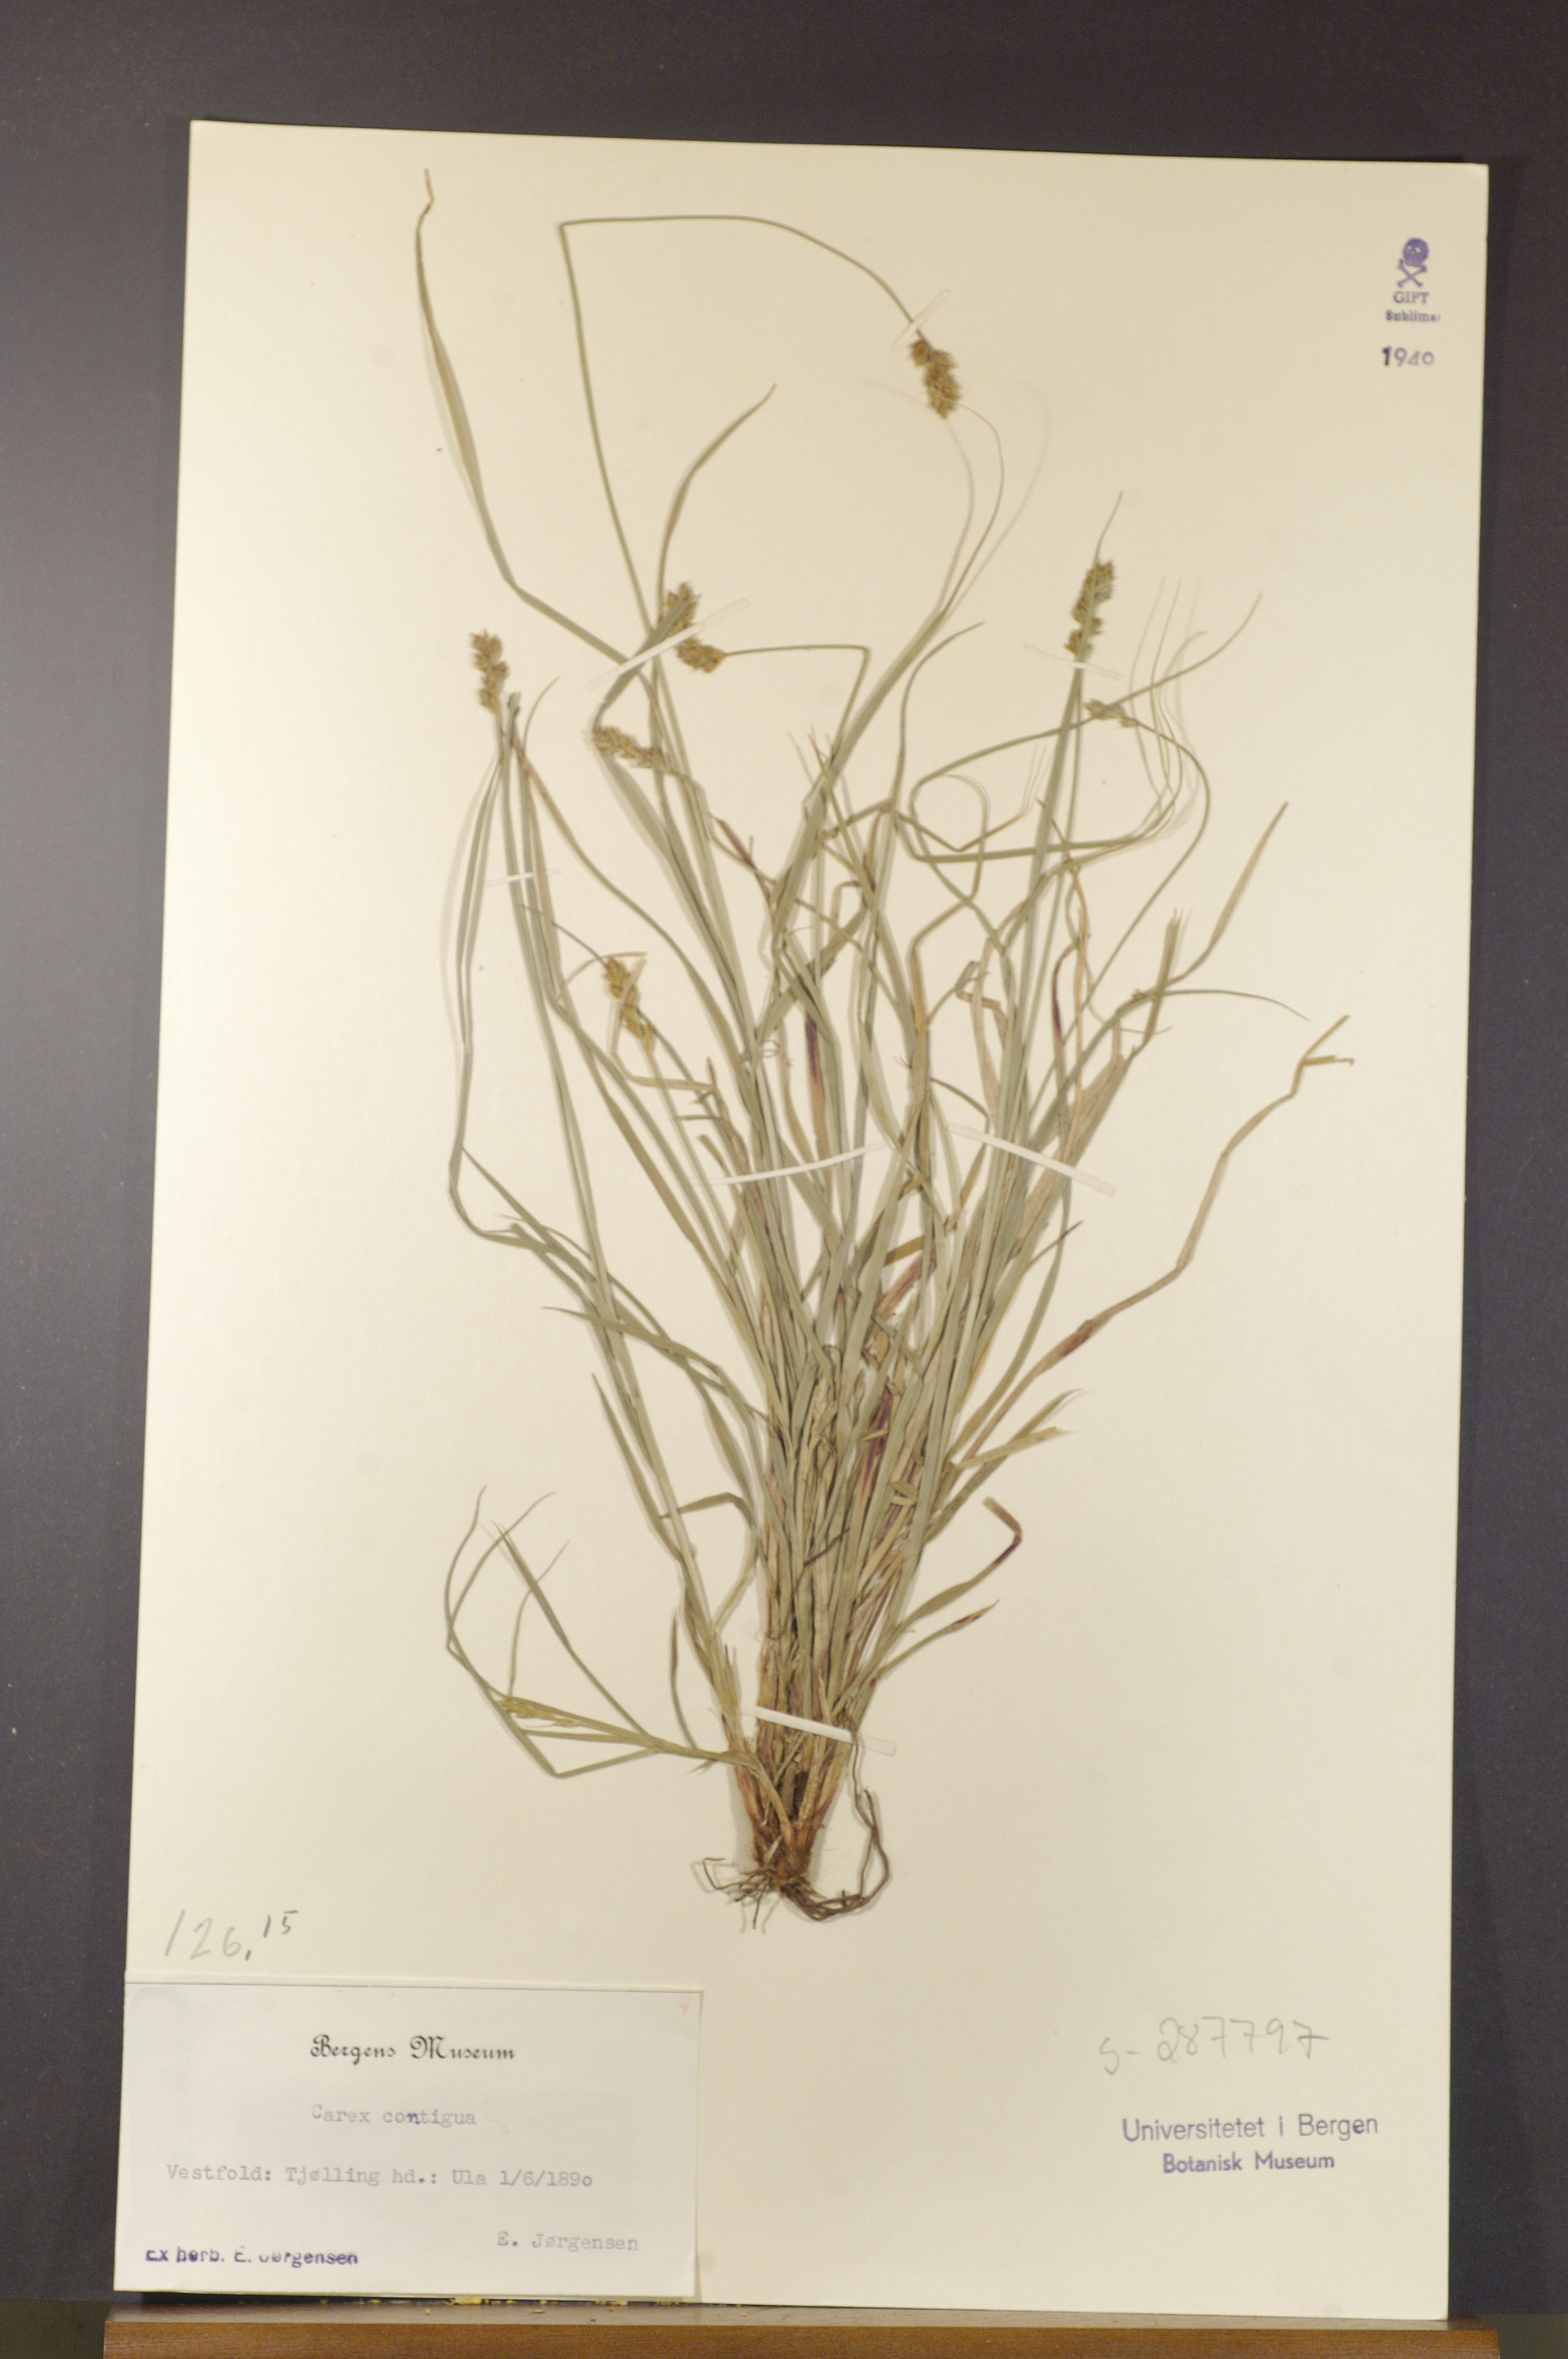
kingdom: Plantae
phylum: Tracheophyta
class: Liliopsida
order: Poales
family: Cyperaceae
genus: Carex
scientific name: Carex spicata
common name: Spiked sedge
